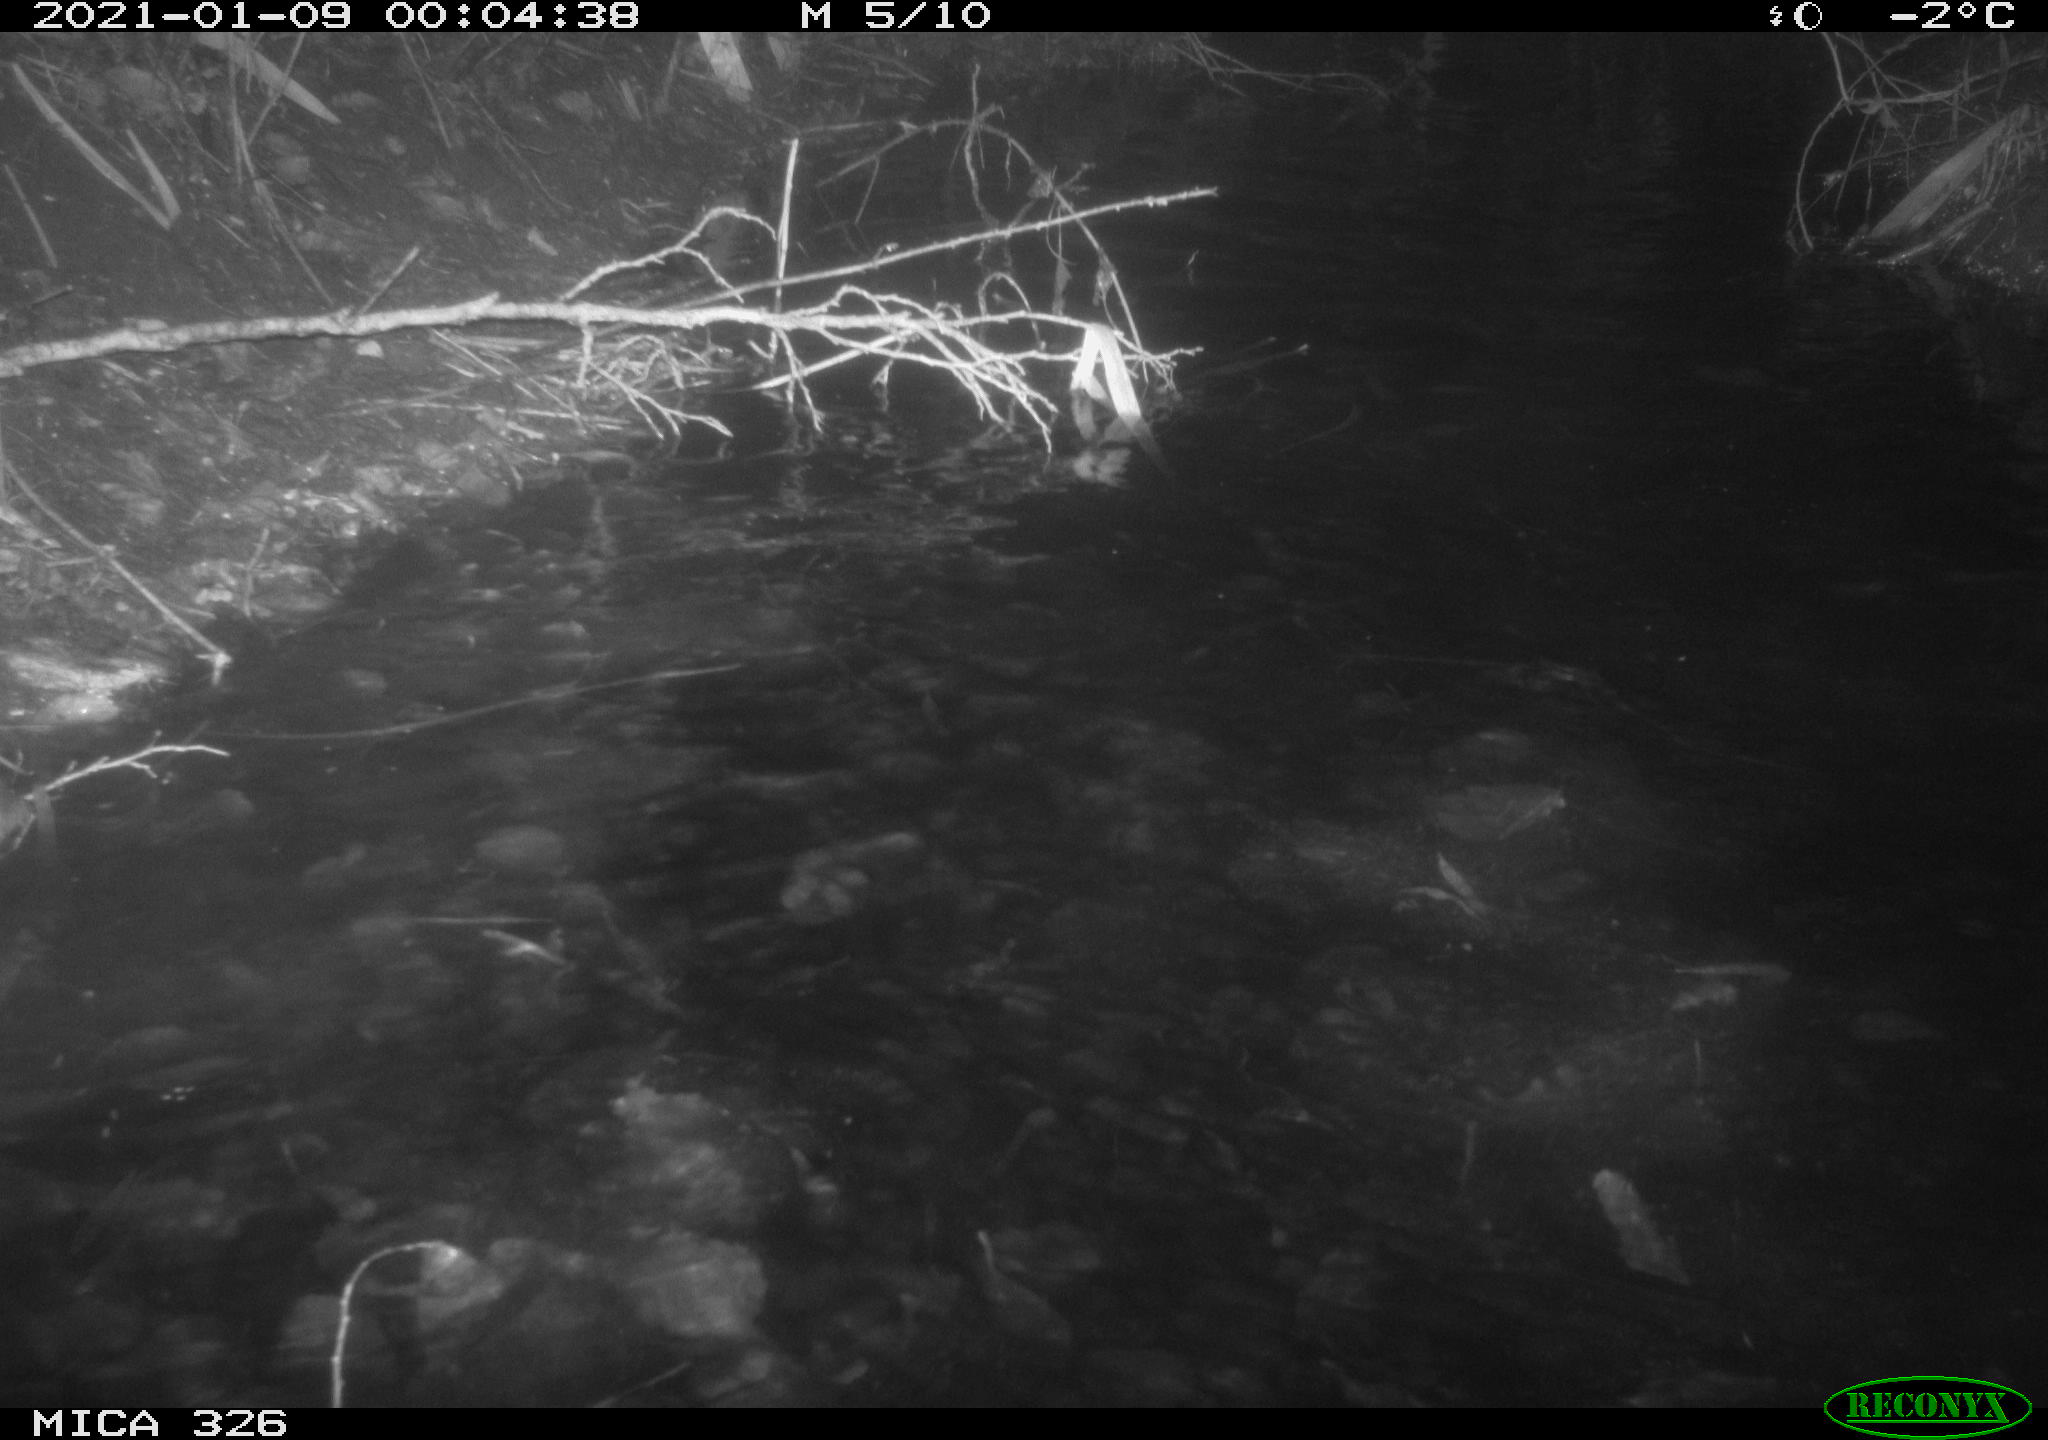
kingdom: Animalia
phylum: Chordata
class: Mammalia
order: Carnivora
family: Mustelidae
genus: Lutra
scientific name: Lutra lutra
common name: European otter
